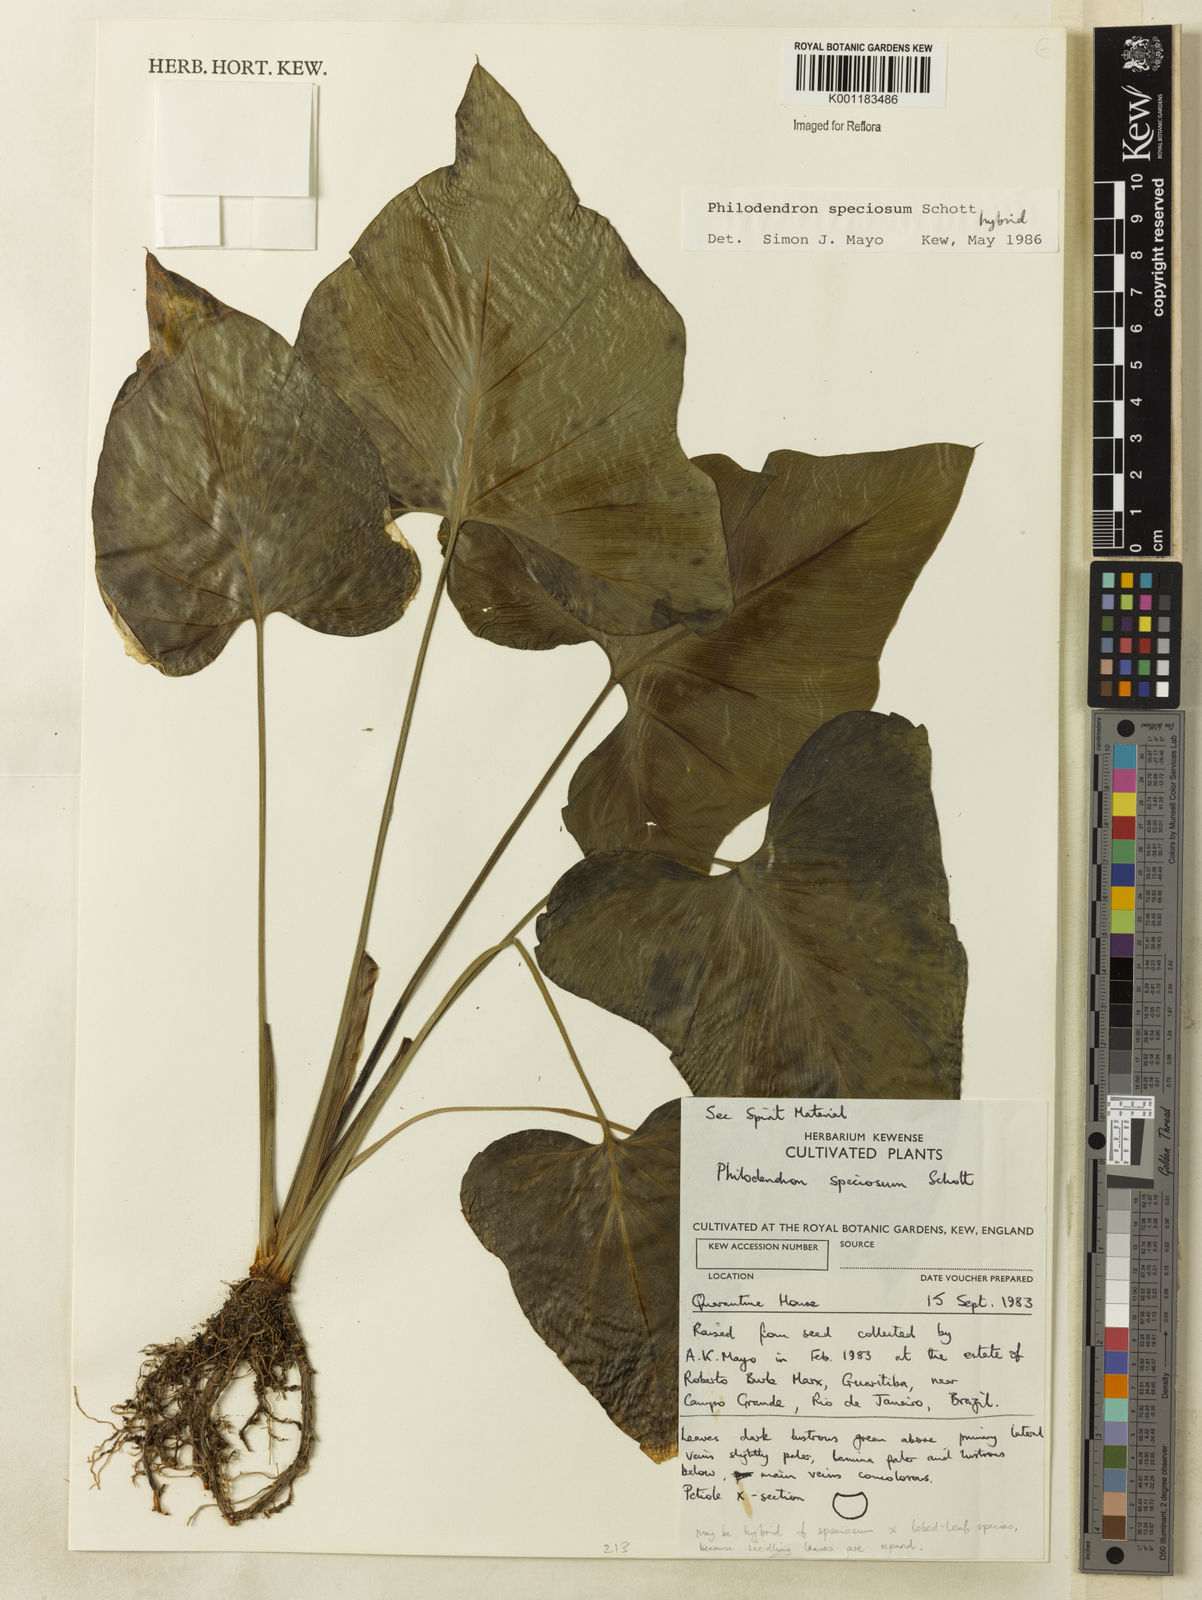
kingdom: Plantae
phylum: Tracheophyta
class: Liliopsida
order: Alismatales
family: Araceae
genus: Thaumatophyllum
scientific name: Thaumatophyllum speciosum
